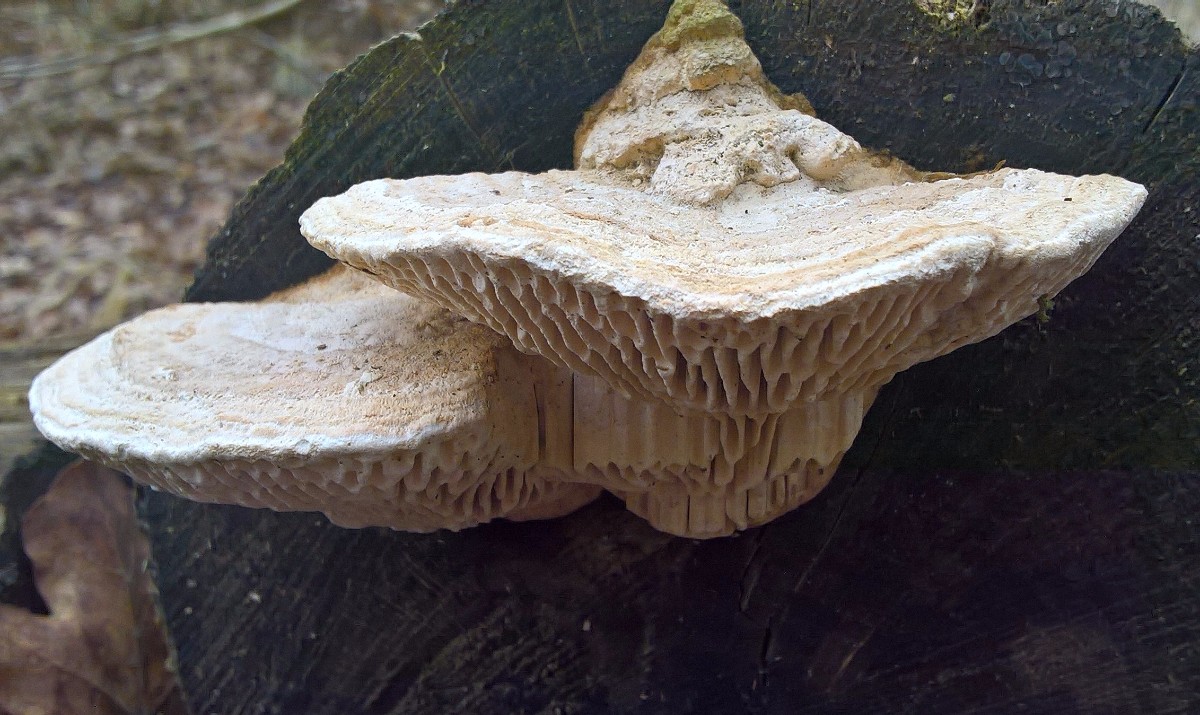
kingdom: Fungi
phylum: Basidiomycota
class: Agaricomycetes
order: Polyporales
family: Fomitopsidaceae
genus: Daedalea
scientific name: Daedalea quercina
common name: ege-labyrintsvamp
